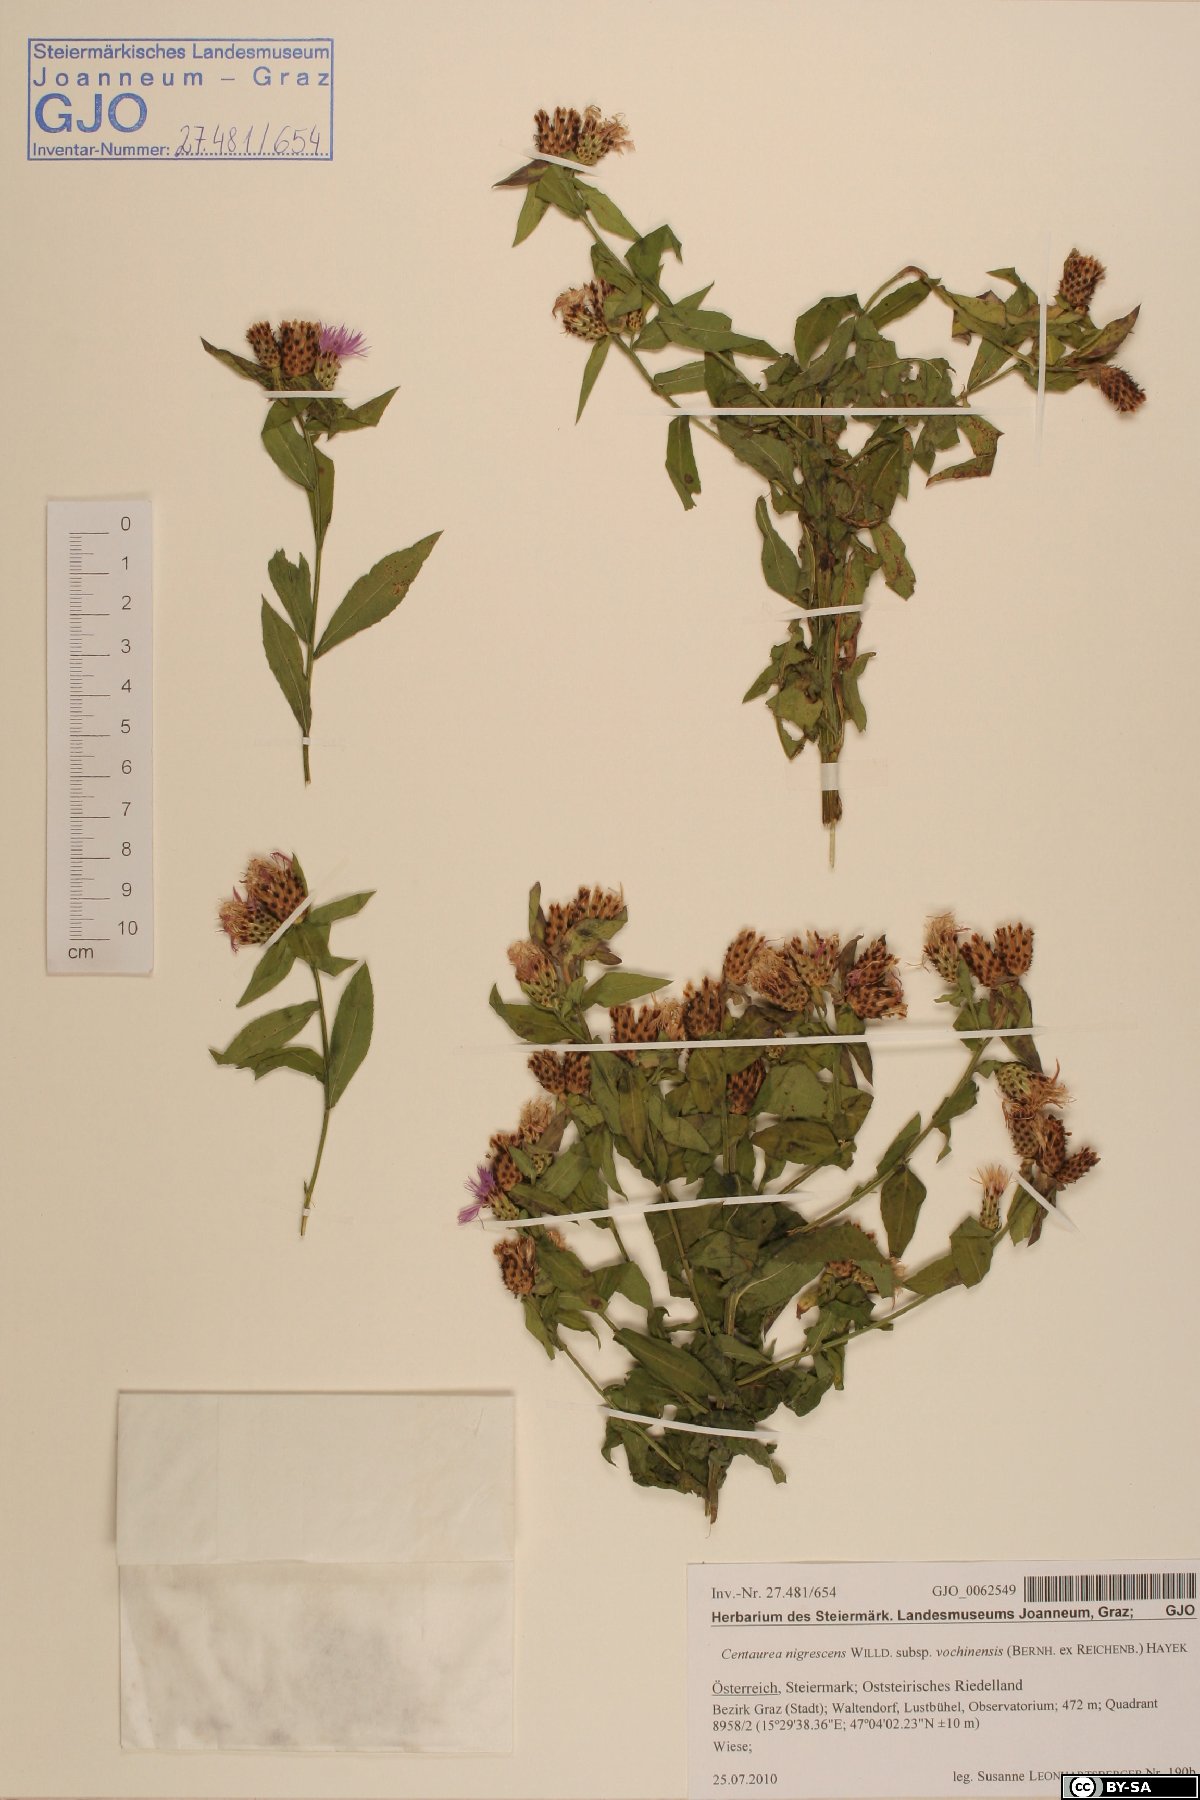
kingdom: Plantae
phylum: Tracheophyta
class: Magnoliopsida
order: Asterales
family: Asteraceae
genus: Centaurea
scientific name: Centaurea carniolica
